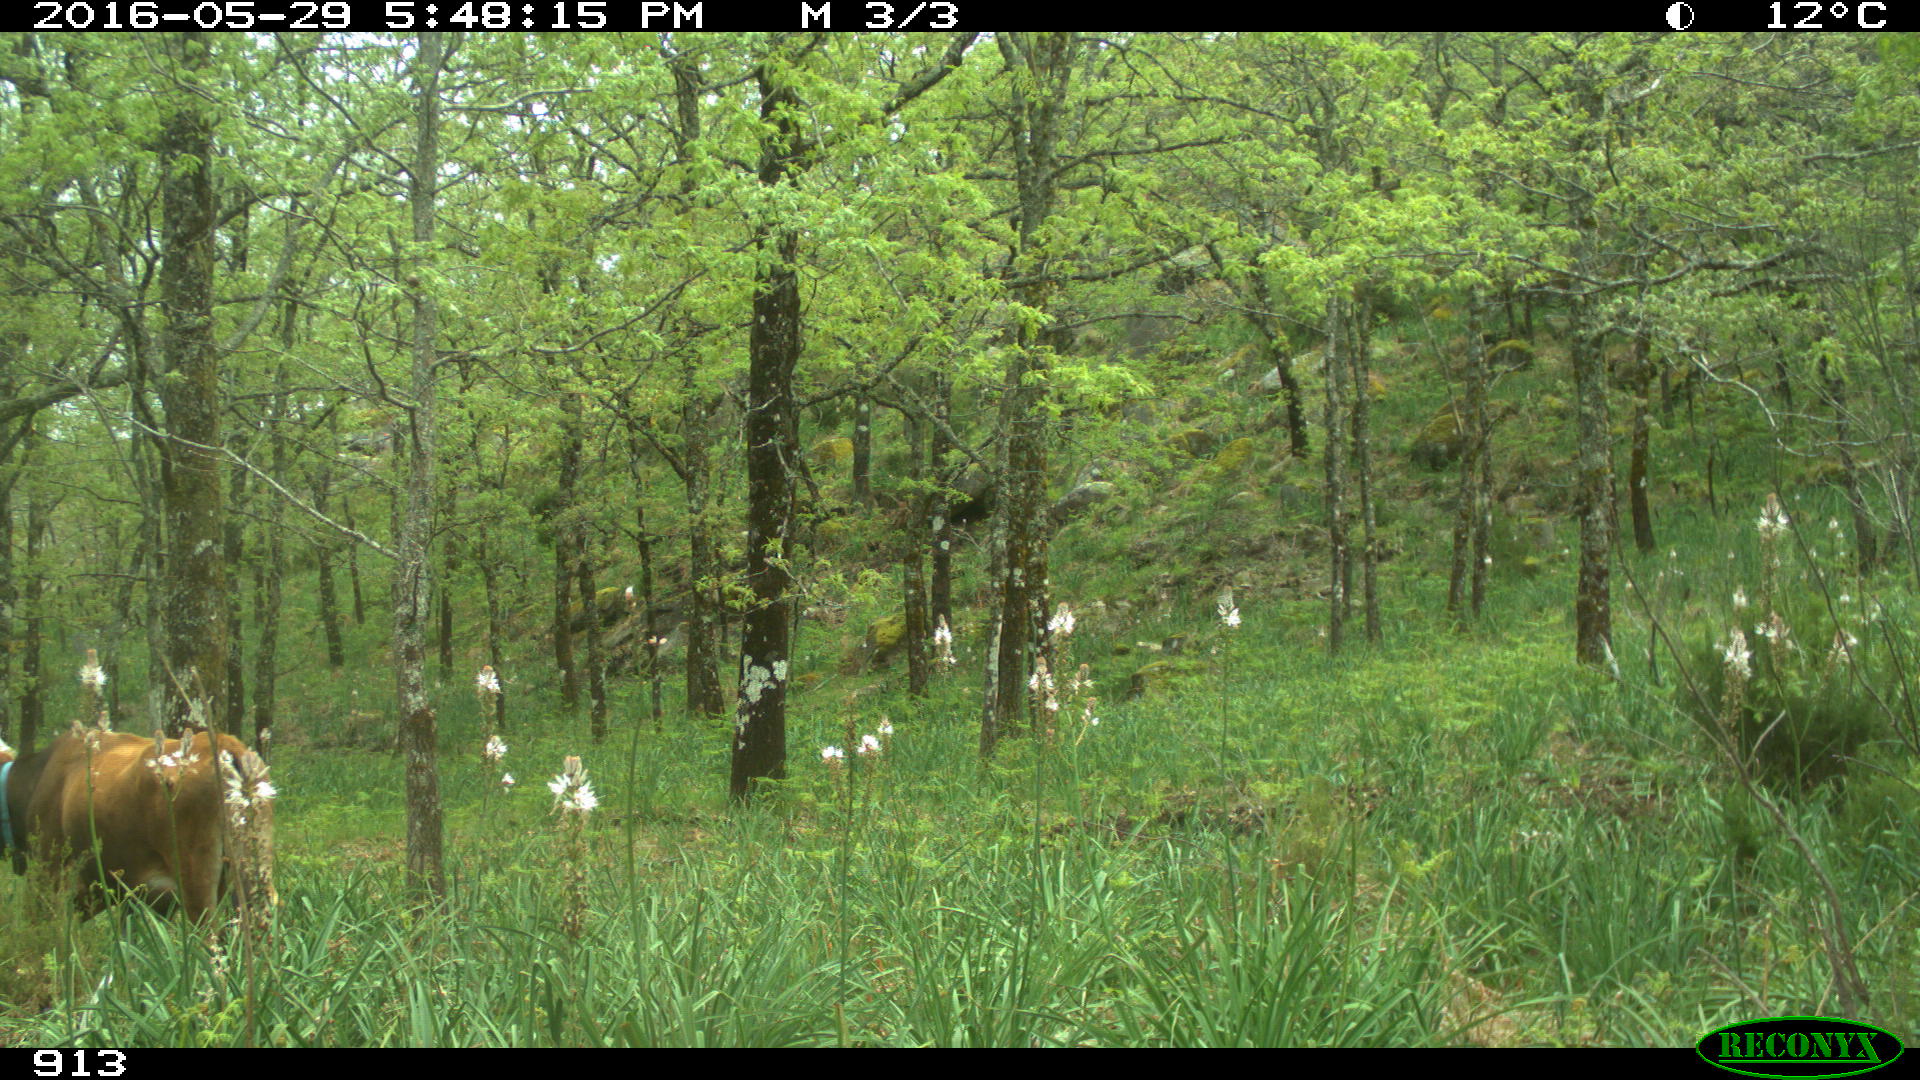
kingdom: Animalia
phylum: Chordata
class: Mammalia
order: Artiodactyla
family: Bovidae
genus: Bos
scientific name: Bos taurus
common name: Domesticated cattle
